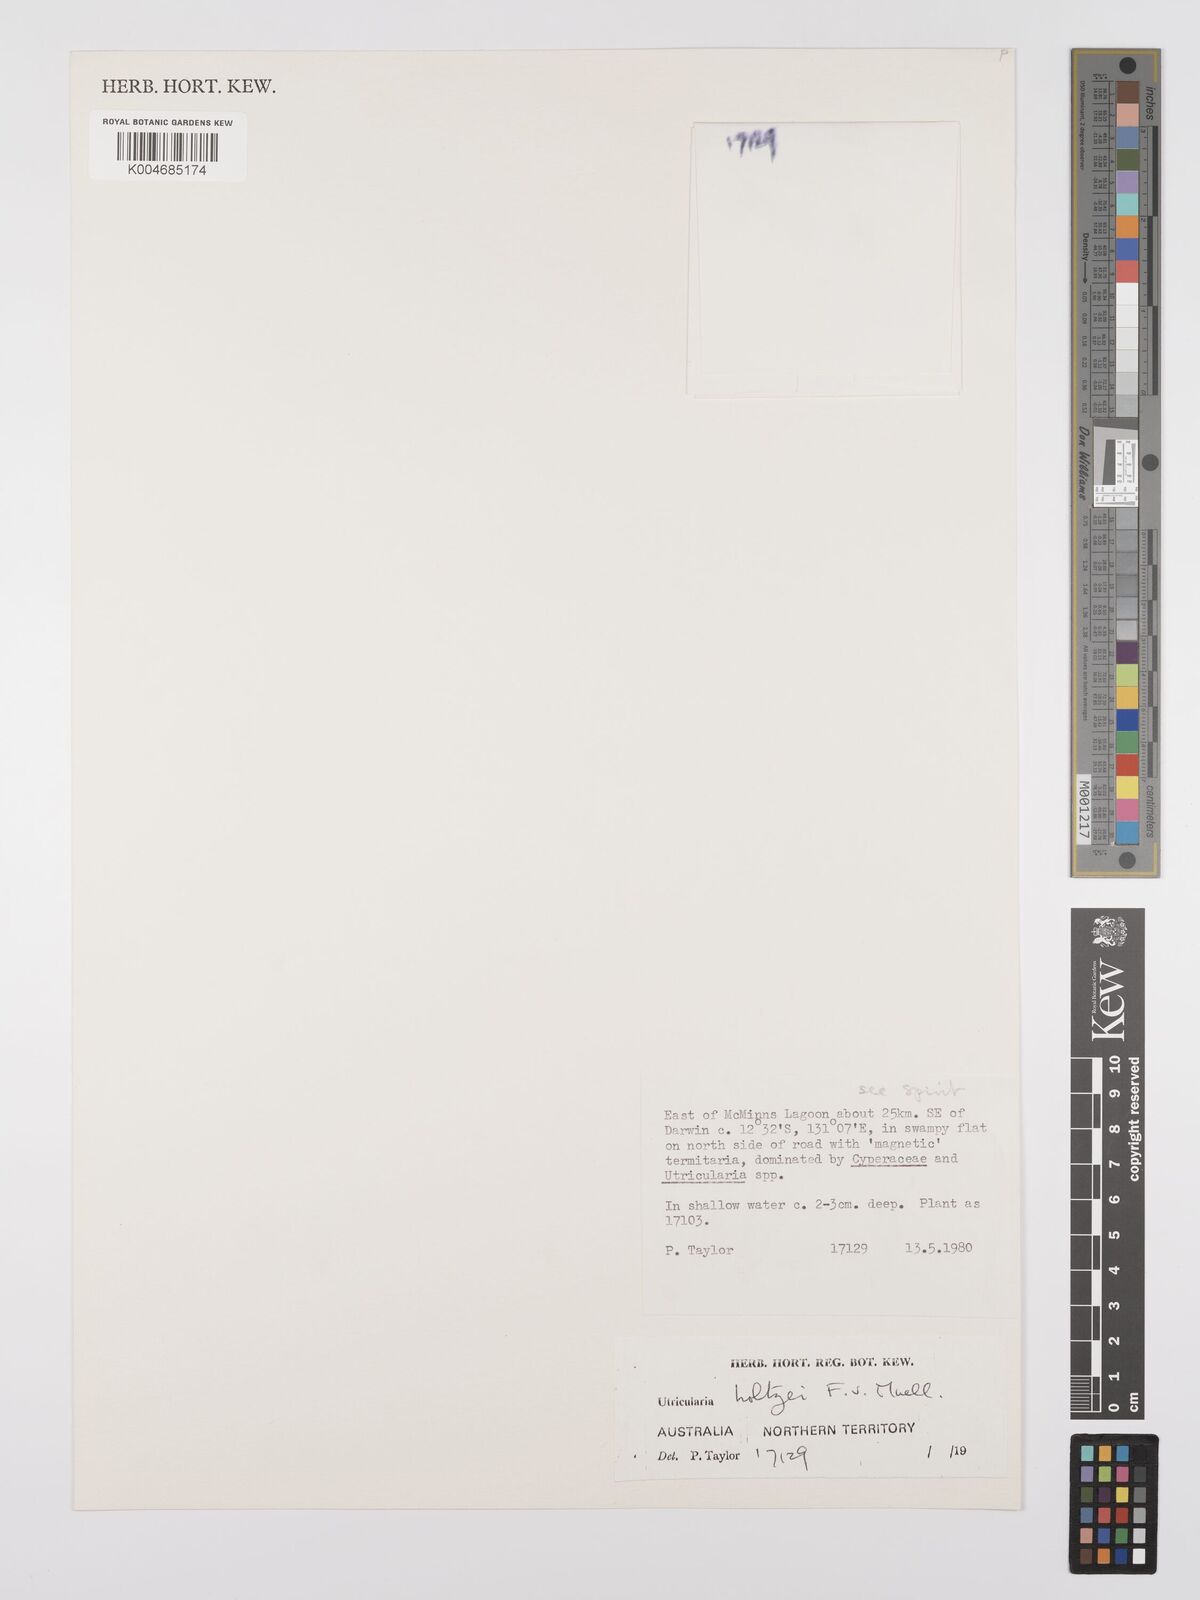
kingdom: Plantae
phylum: Tracheophyta
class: Magnoliopsida
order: Lamiales
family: Lentibulariaceae
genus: Utricularia
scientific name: Utricularia holtzei
